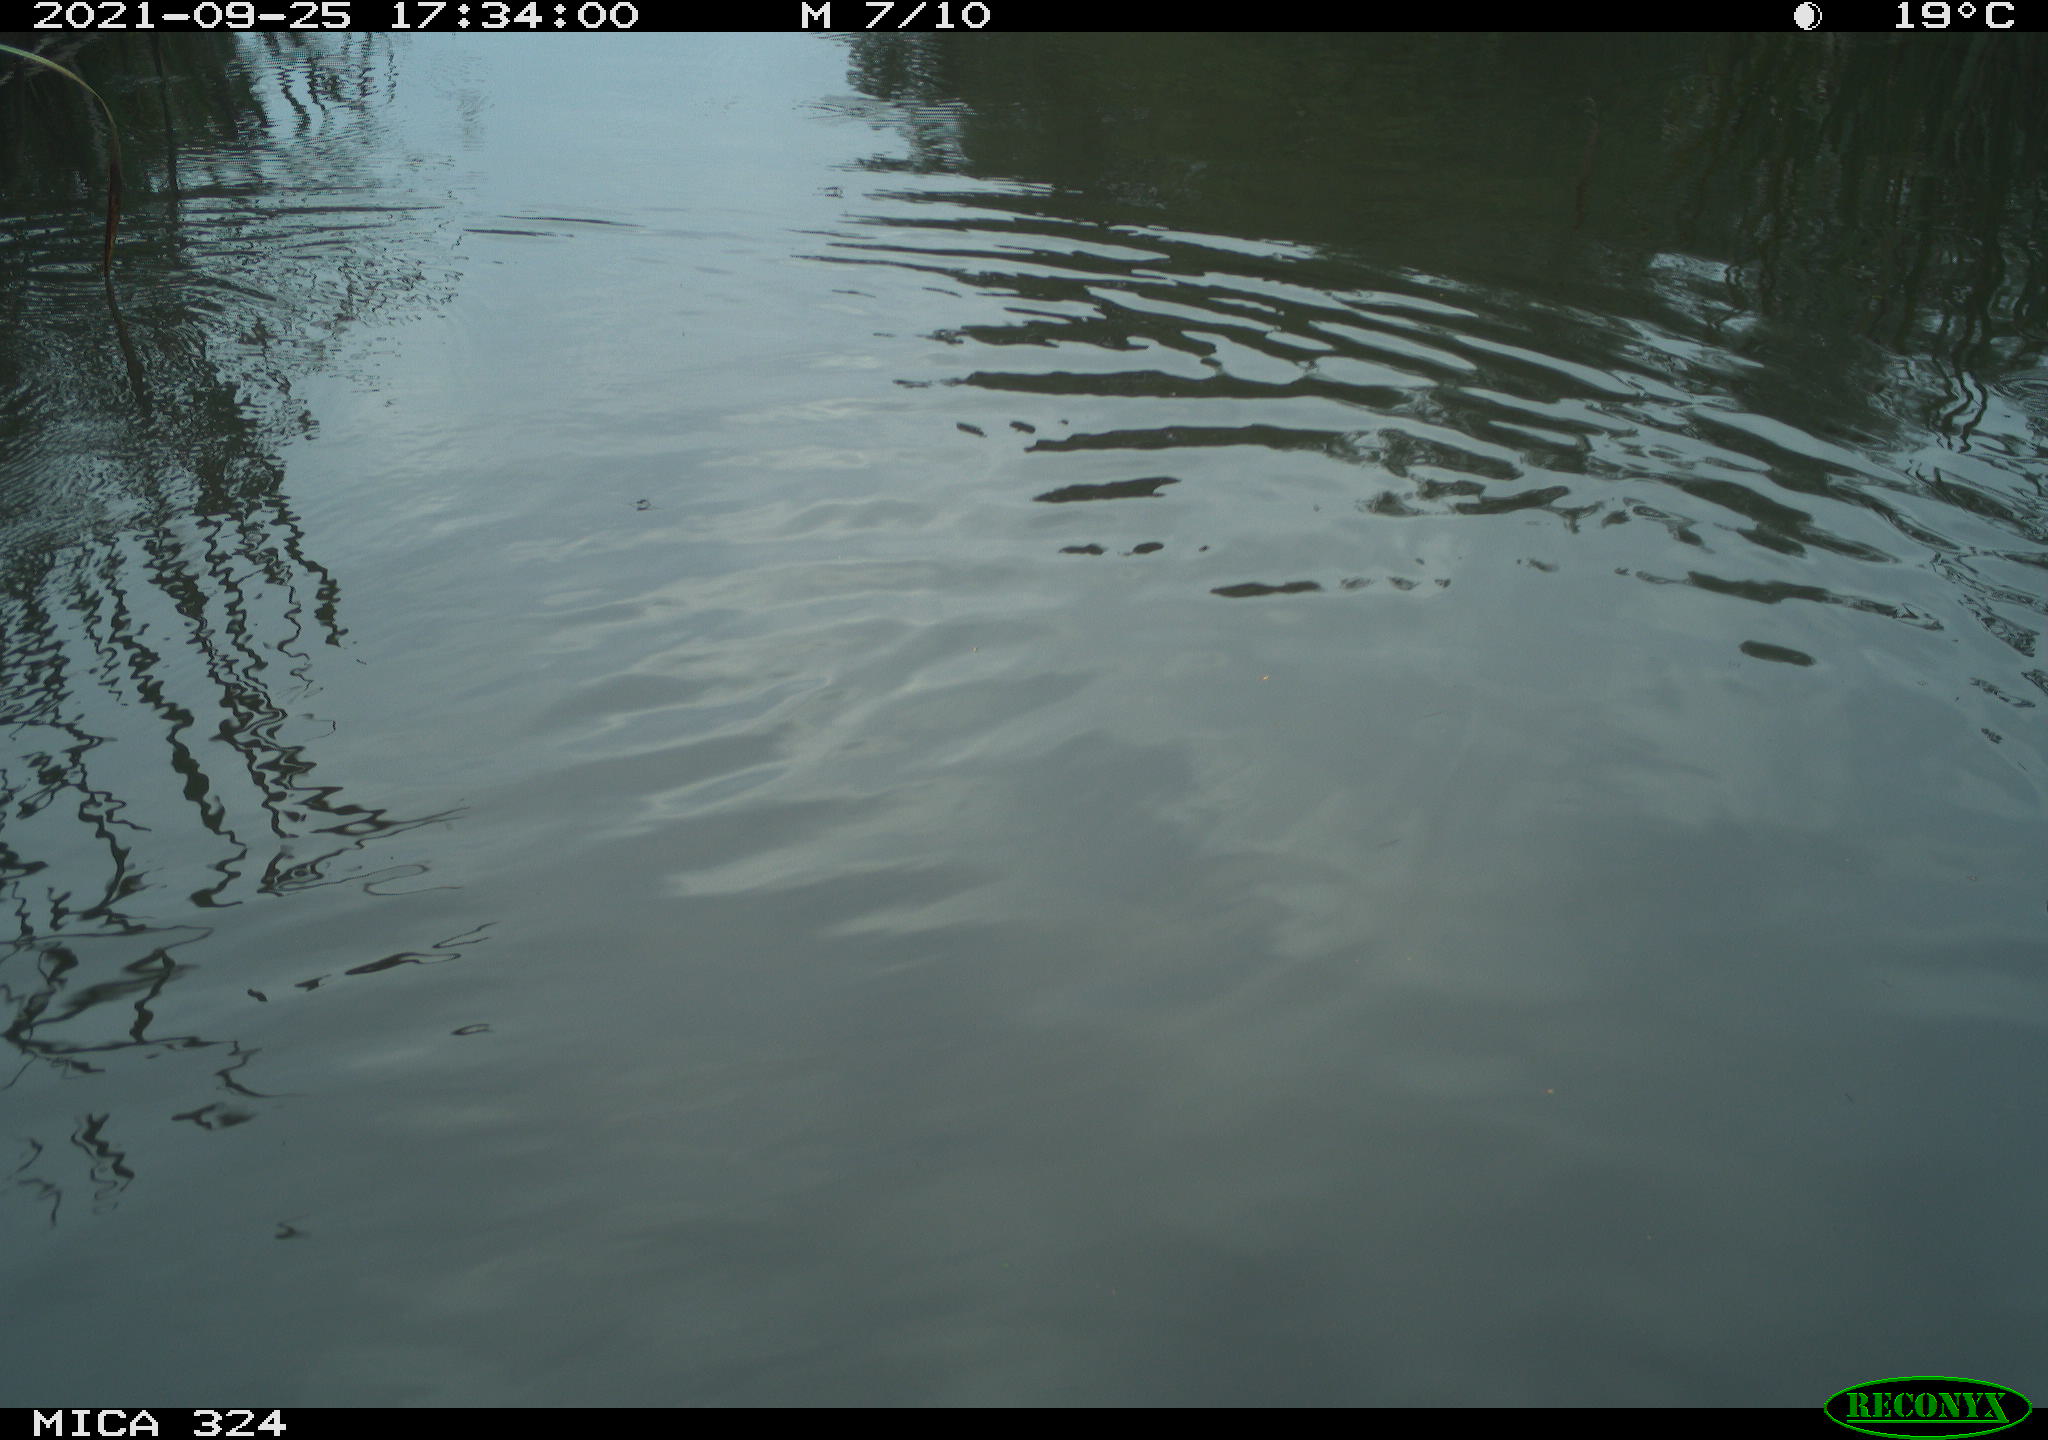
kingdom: Animalia
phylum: Chordata
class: Mammalia
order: Rodentia
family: Cricetidae
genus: Ondatra
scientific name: Ondatra zibethicus
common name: Muskrat
